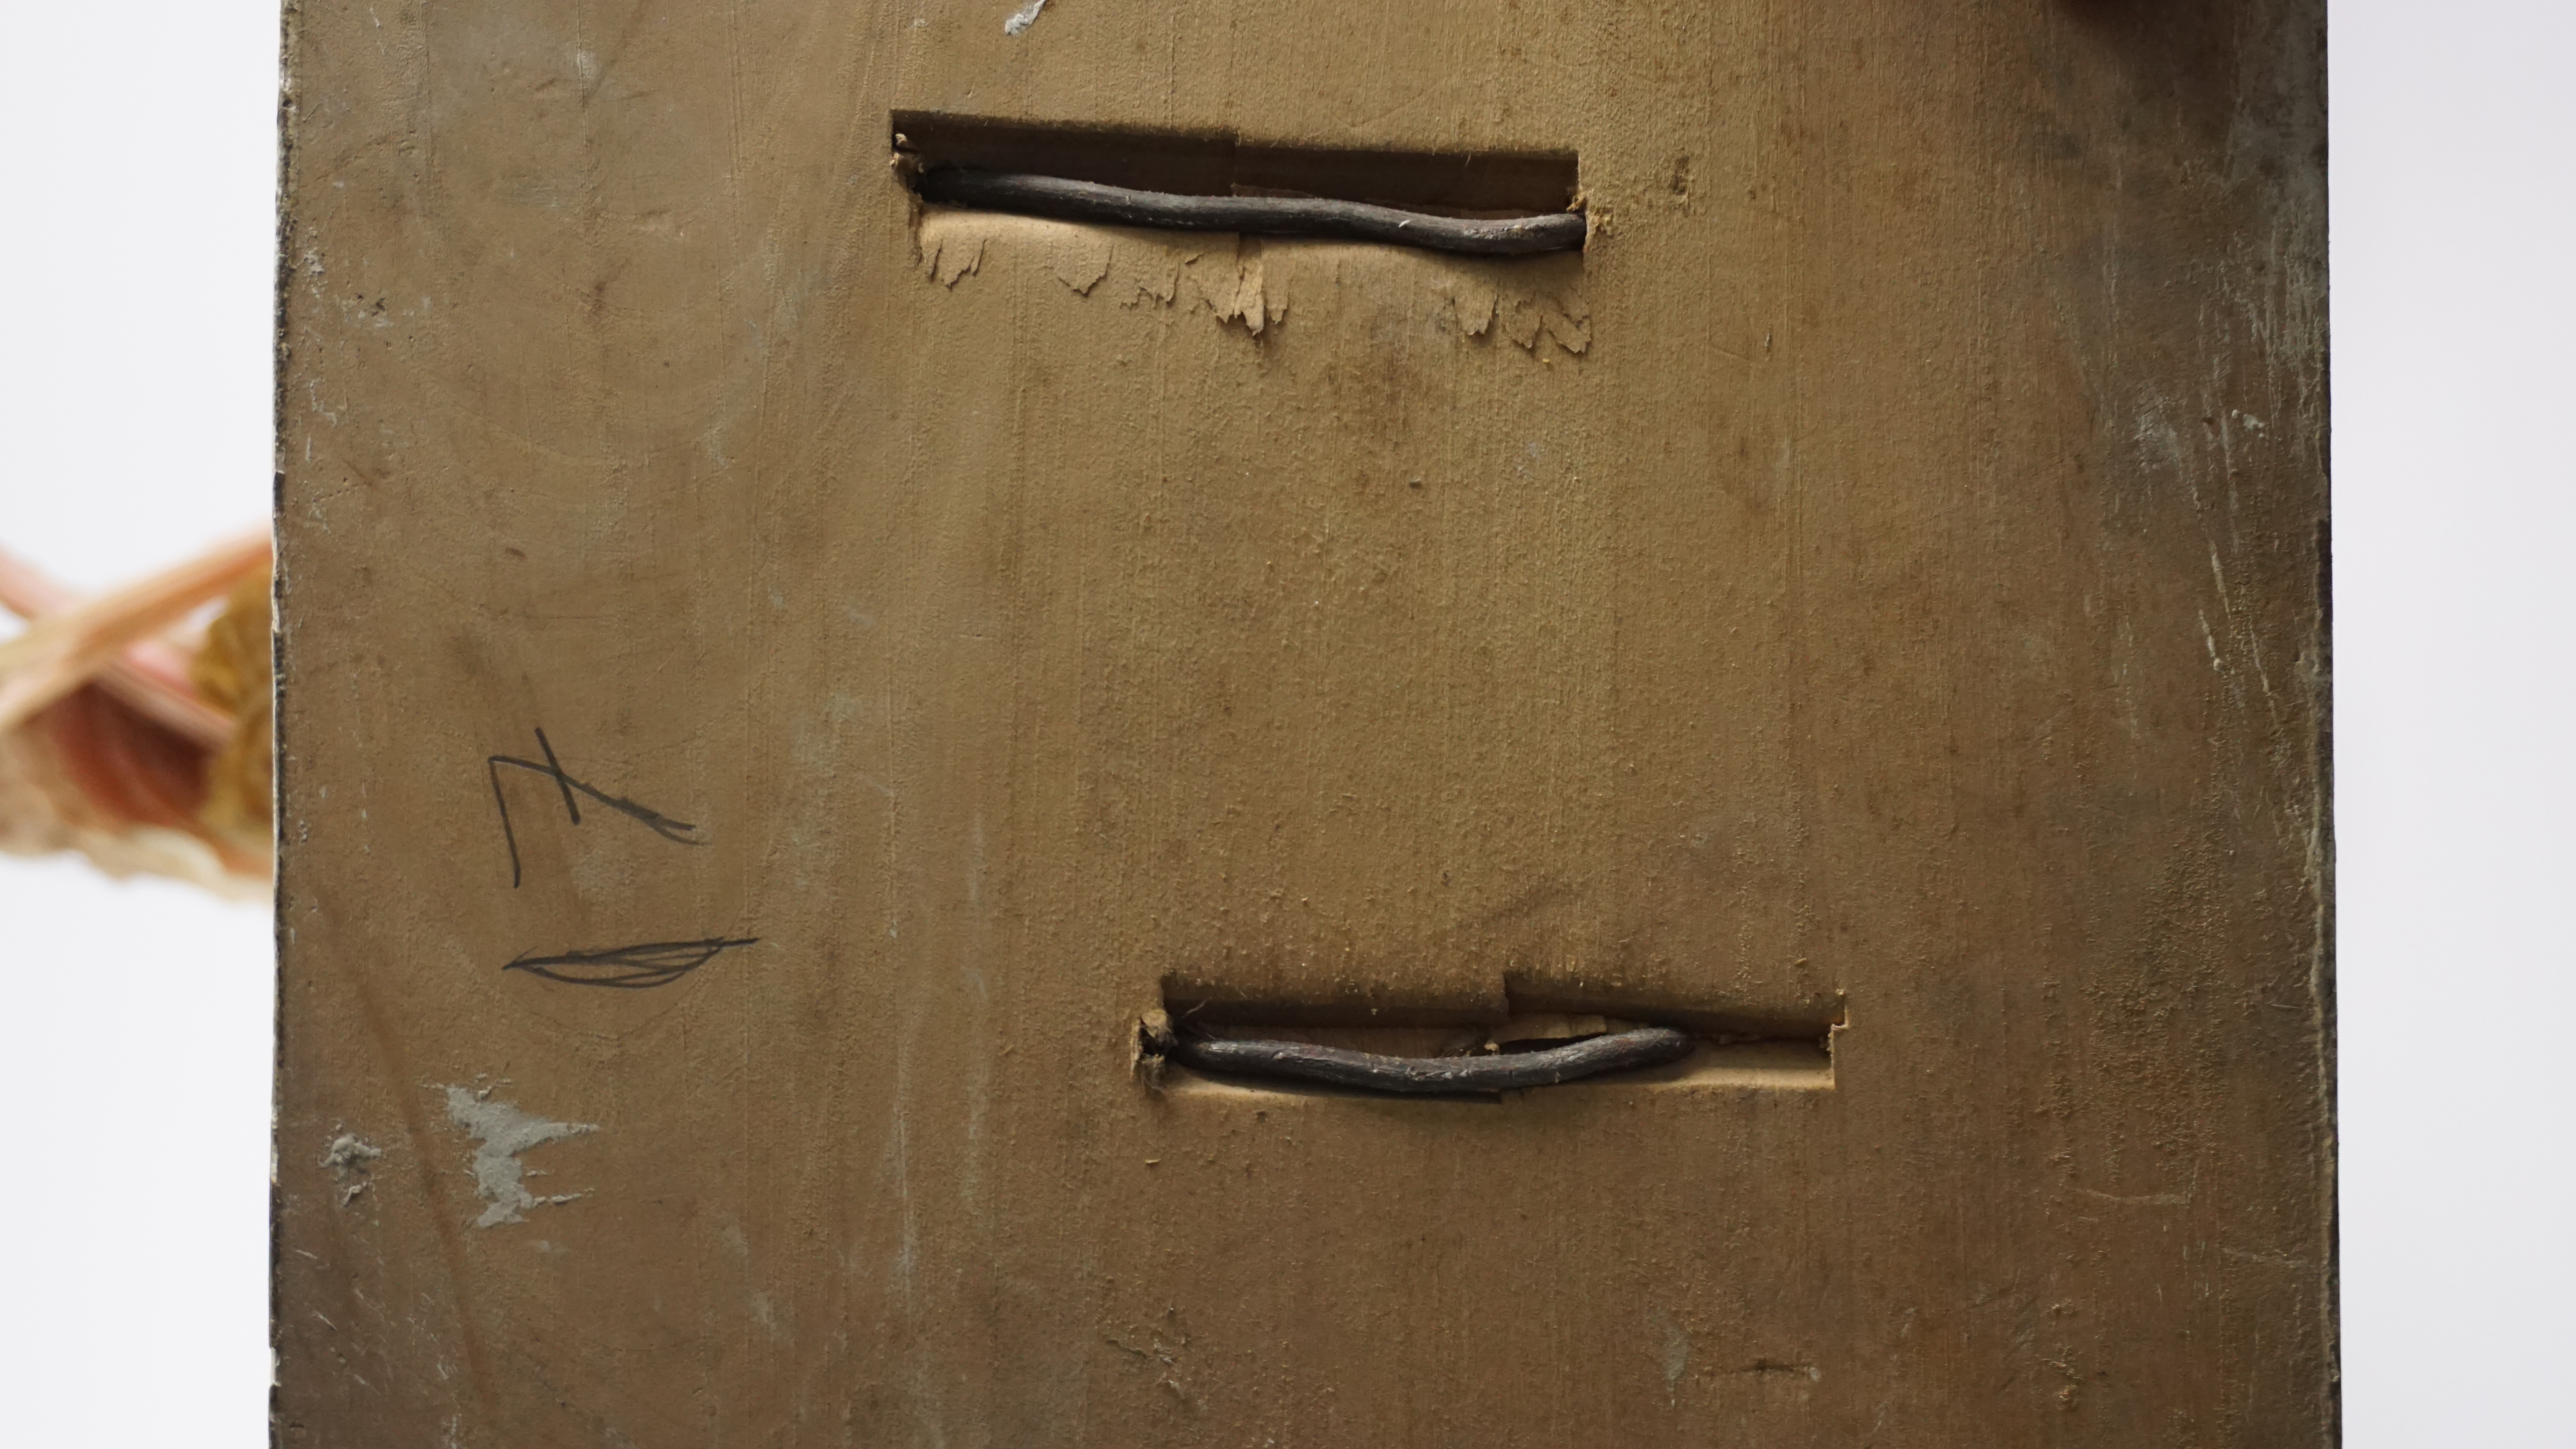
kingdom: Animalia
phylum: Chordata
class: Aves
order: Pelecaniformes
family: Threskiornithidae
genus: Platalea
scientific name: Platalea ajaja
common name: Roseate spoonbill
